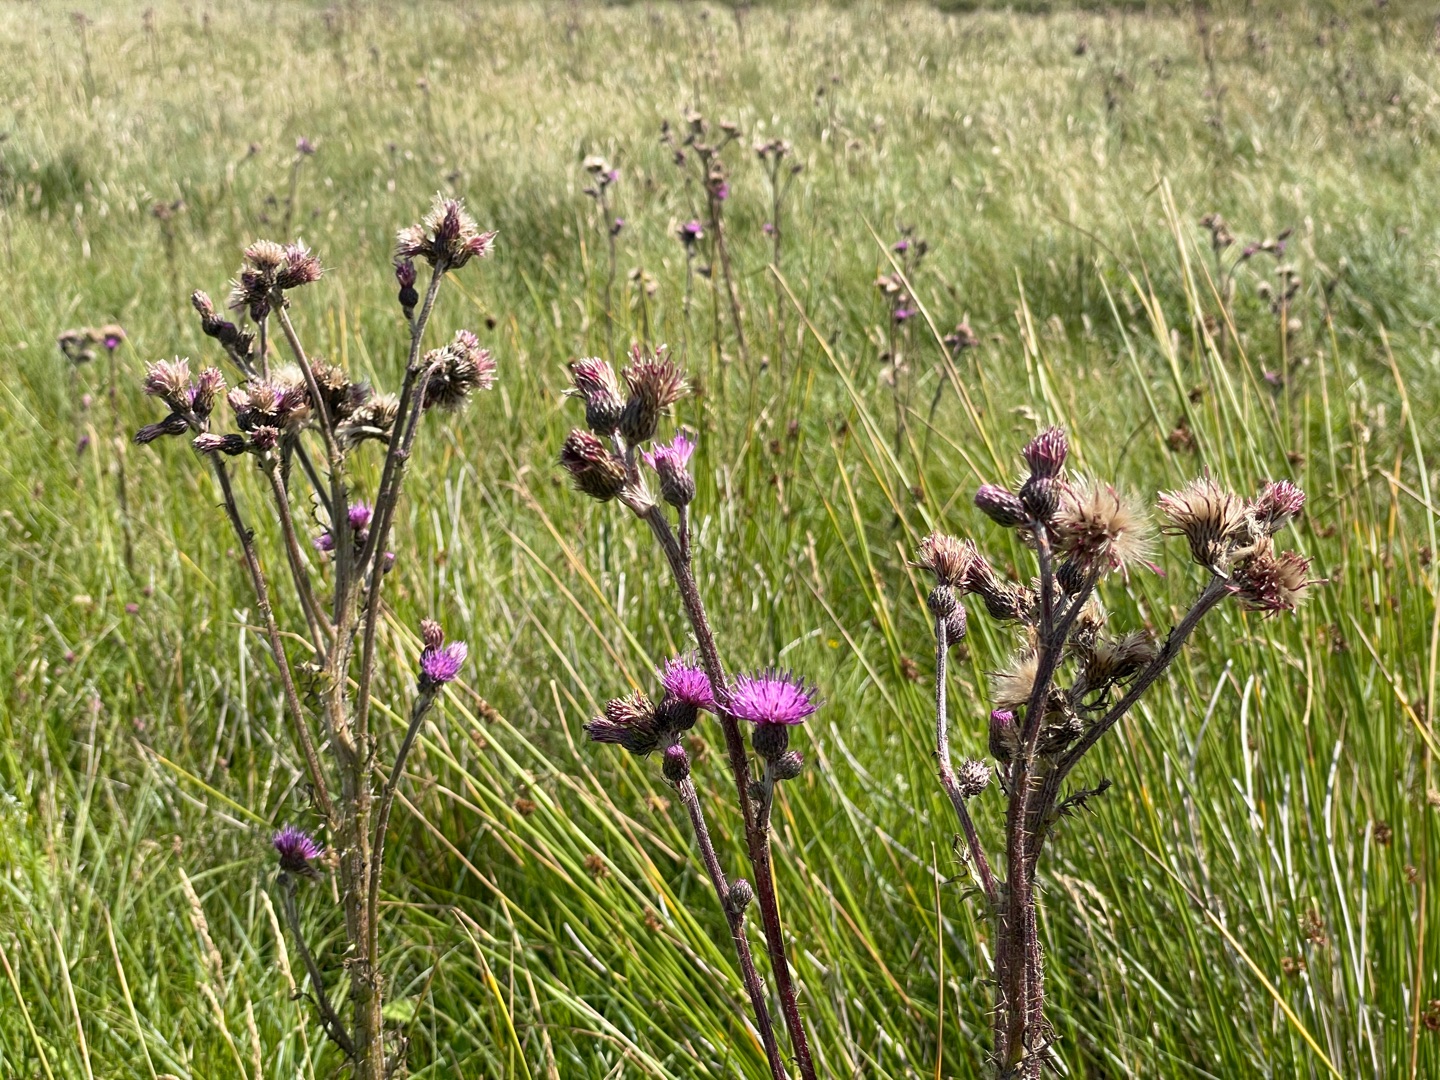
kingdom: Plantae
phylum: Tracheophyta
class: Magnoliopsida
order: Asterales
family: Asteraceae
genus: Cirsium
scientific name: Cirsium palustre
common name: Kær-tidsel
